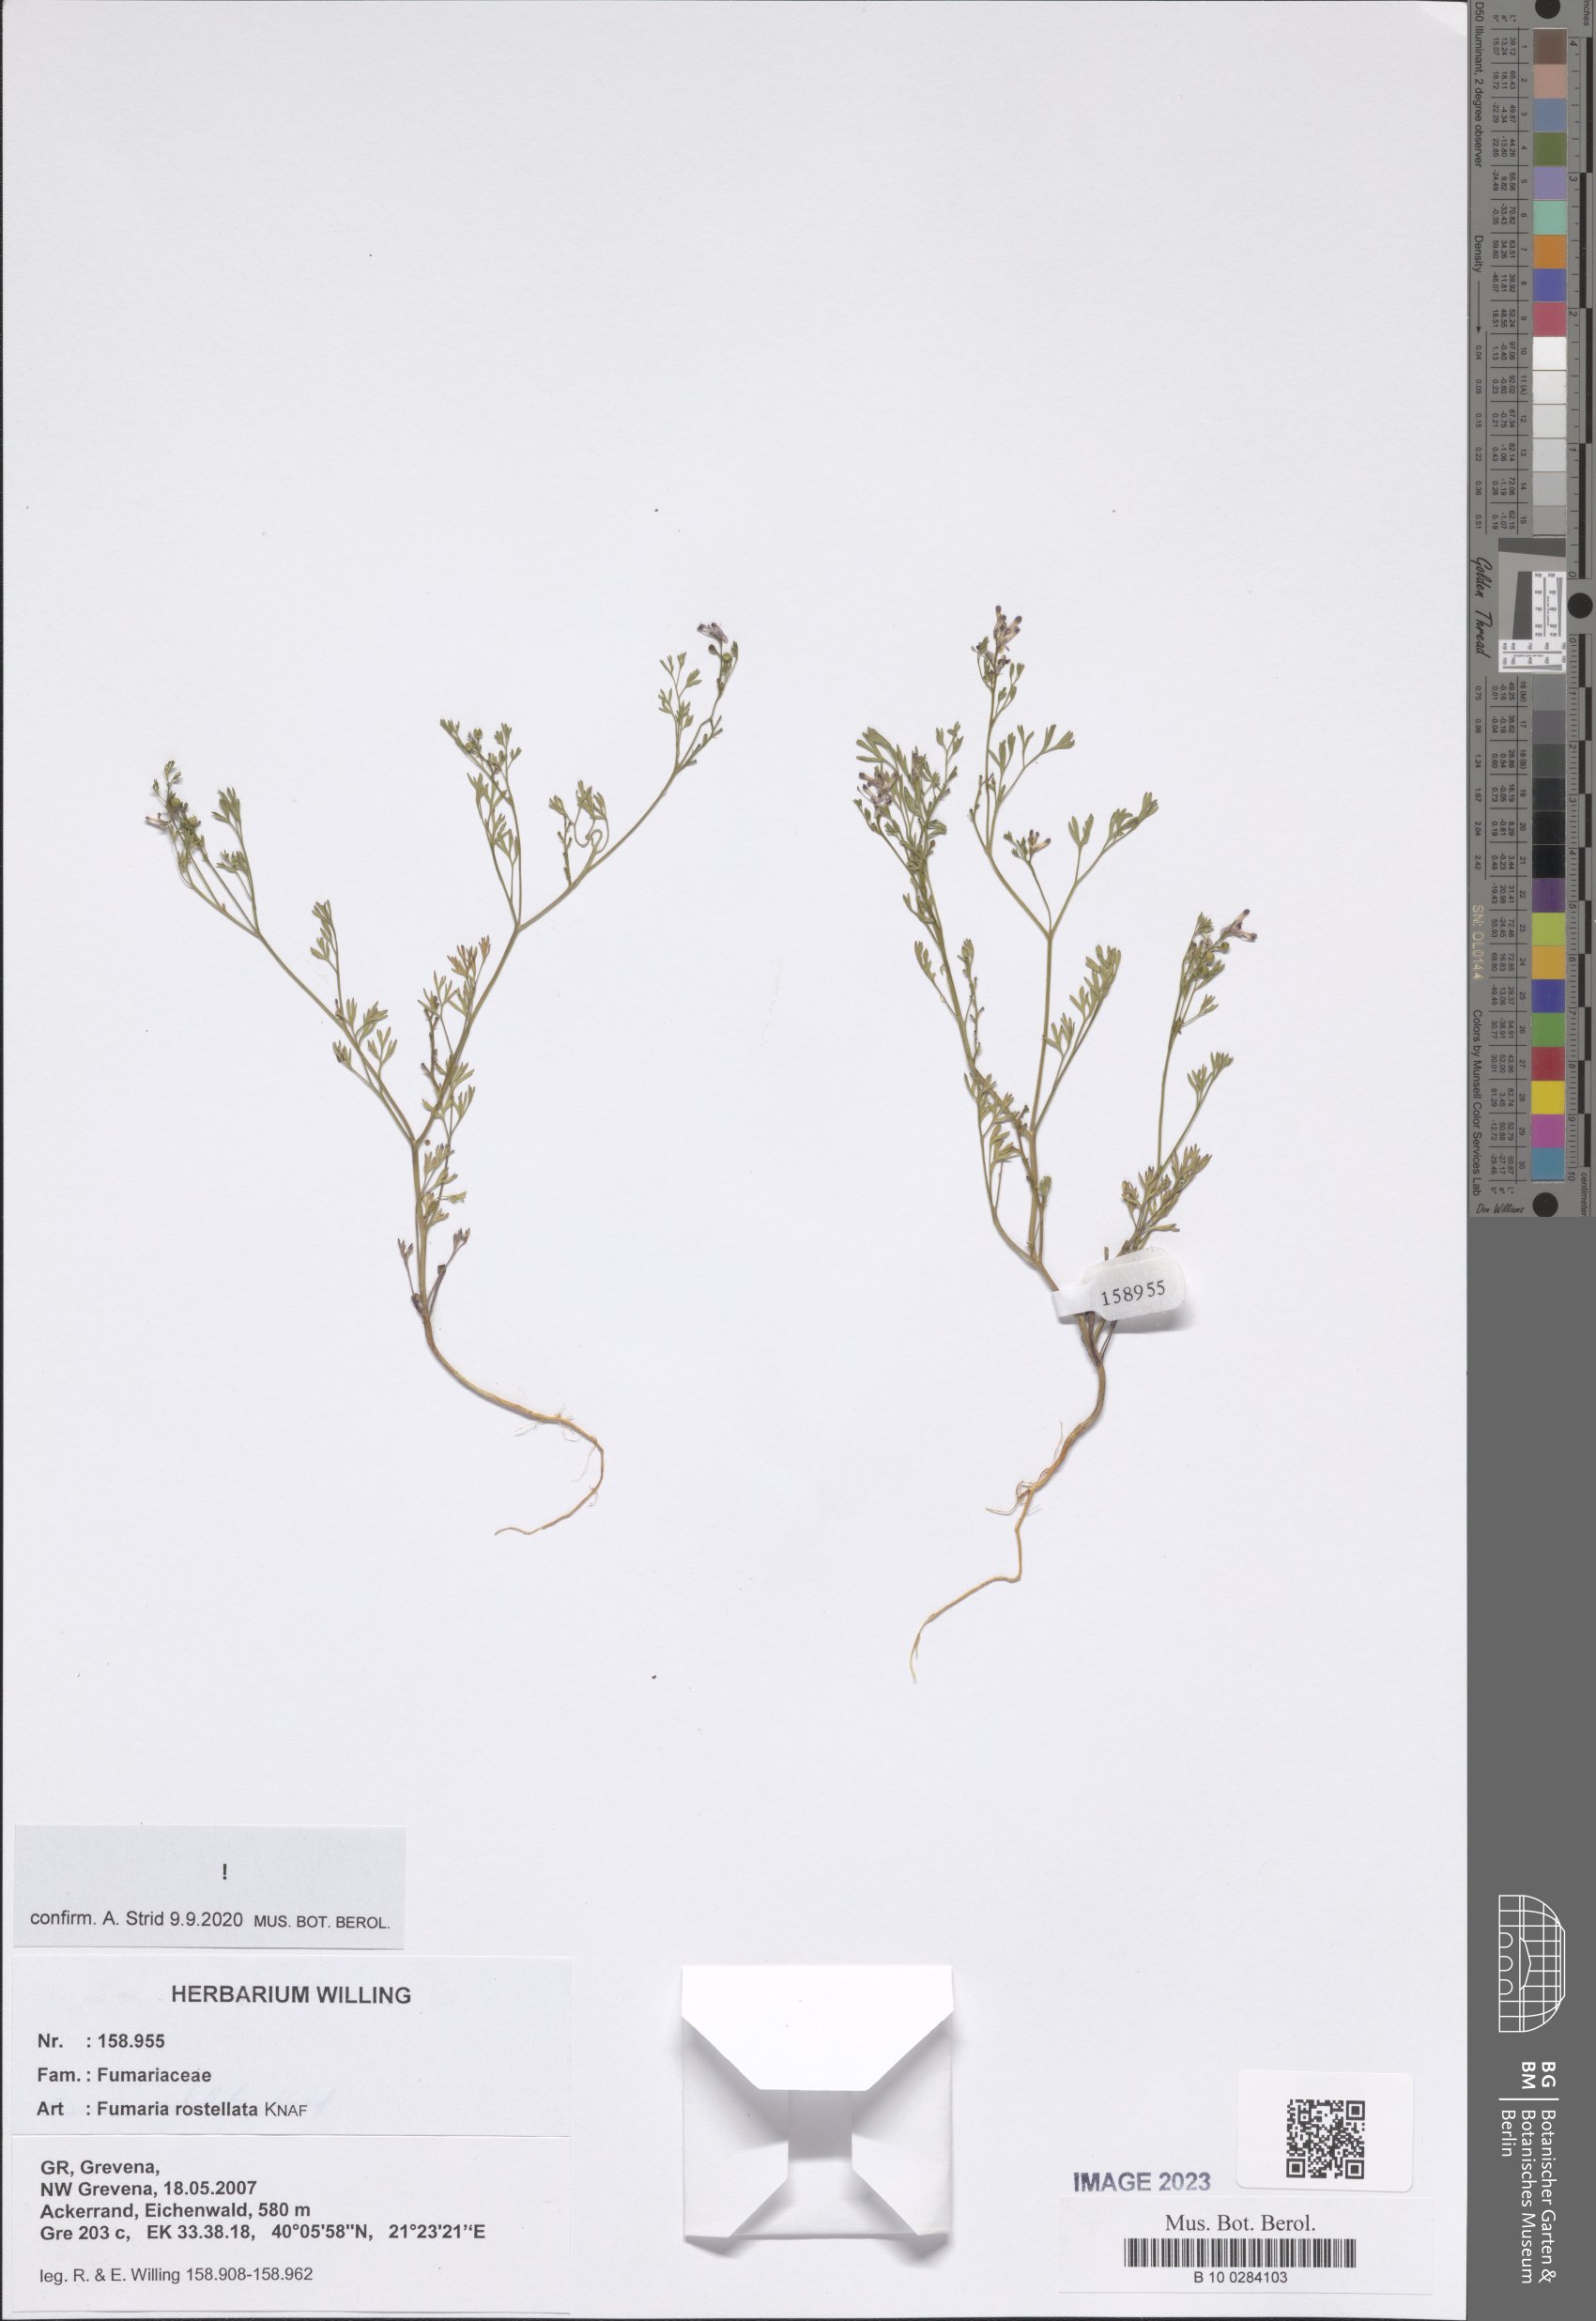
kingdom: Plantae
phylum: Tracheophyta
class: Magnoliopsida
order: Ranunculales
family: Papaveraceae
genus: Fumaria
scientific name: Fumaria rostellata
